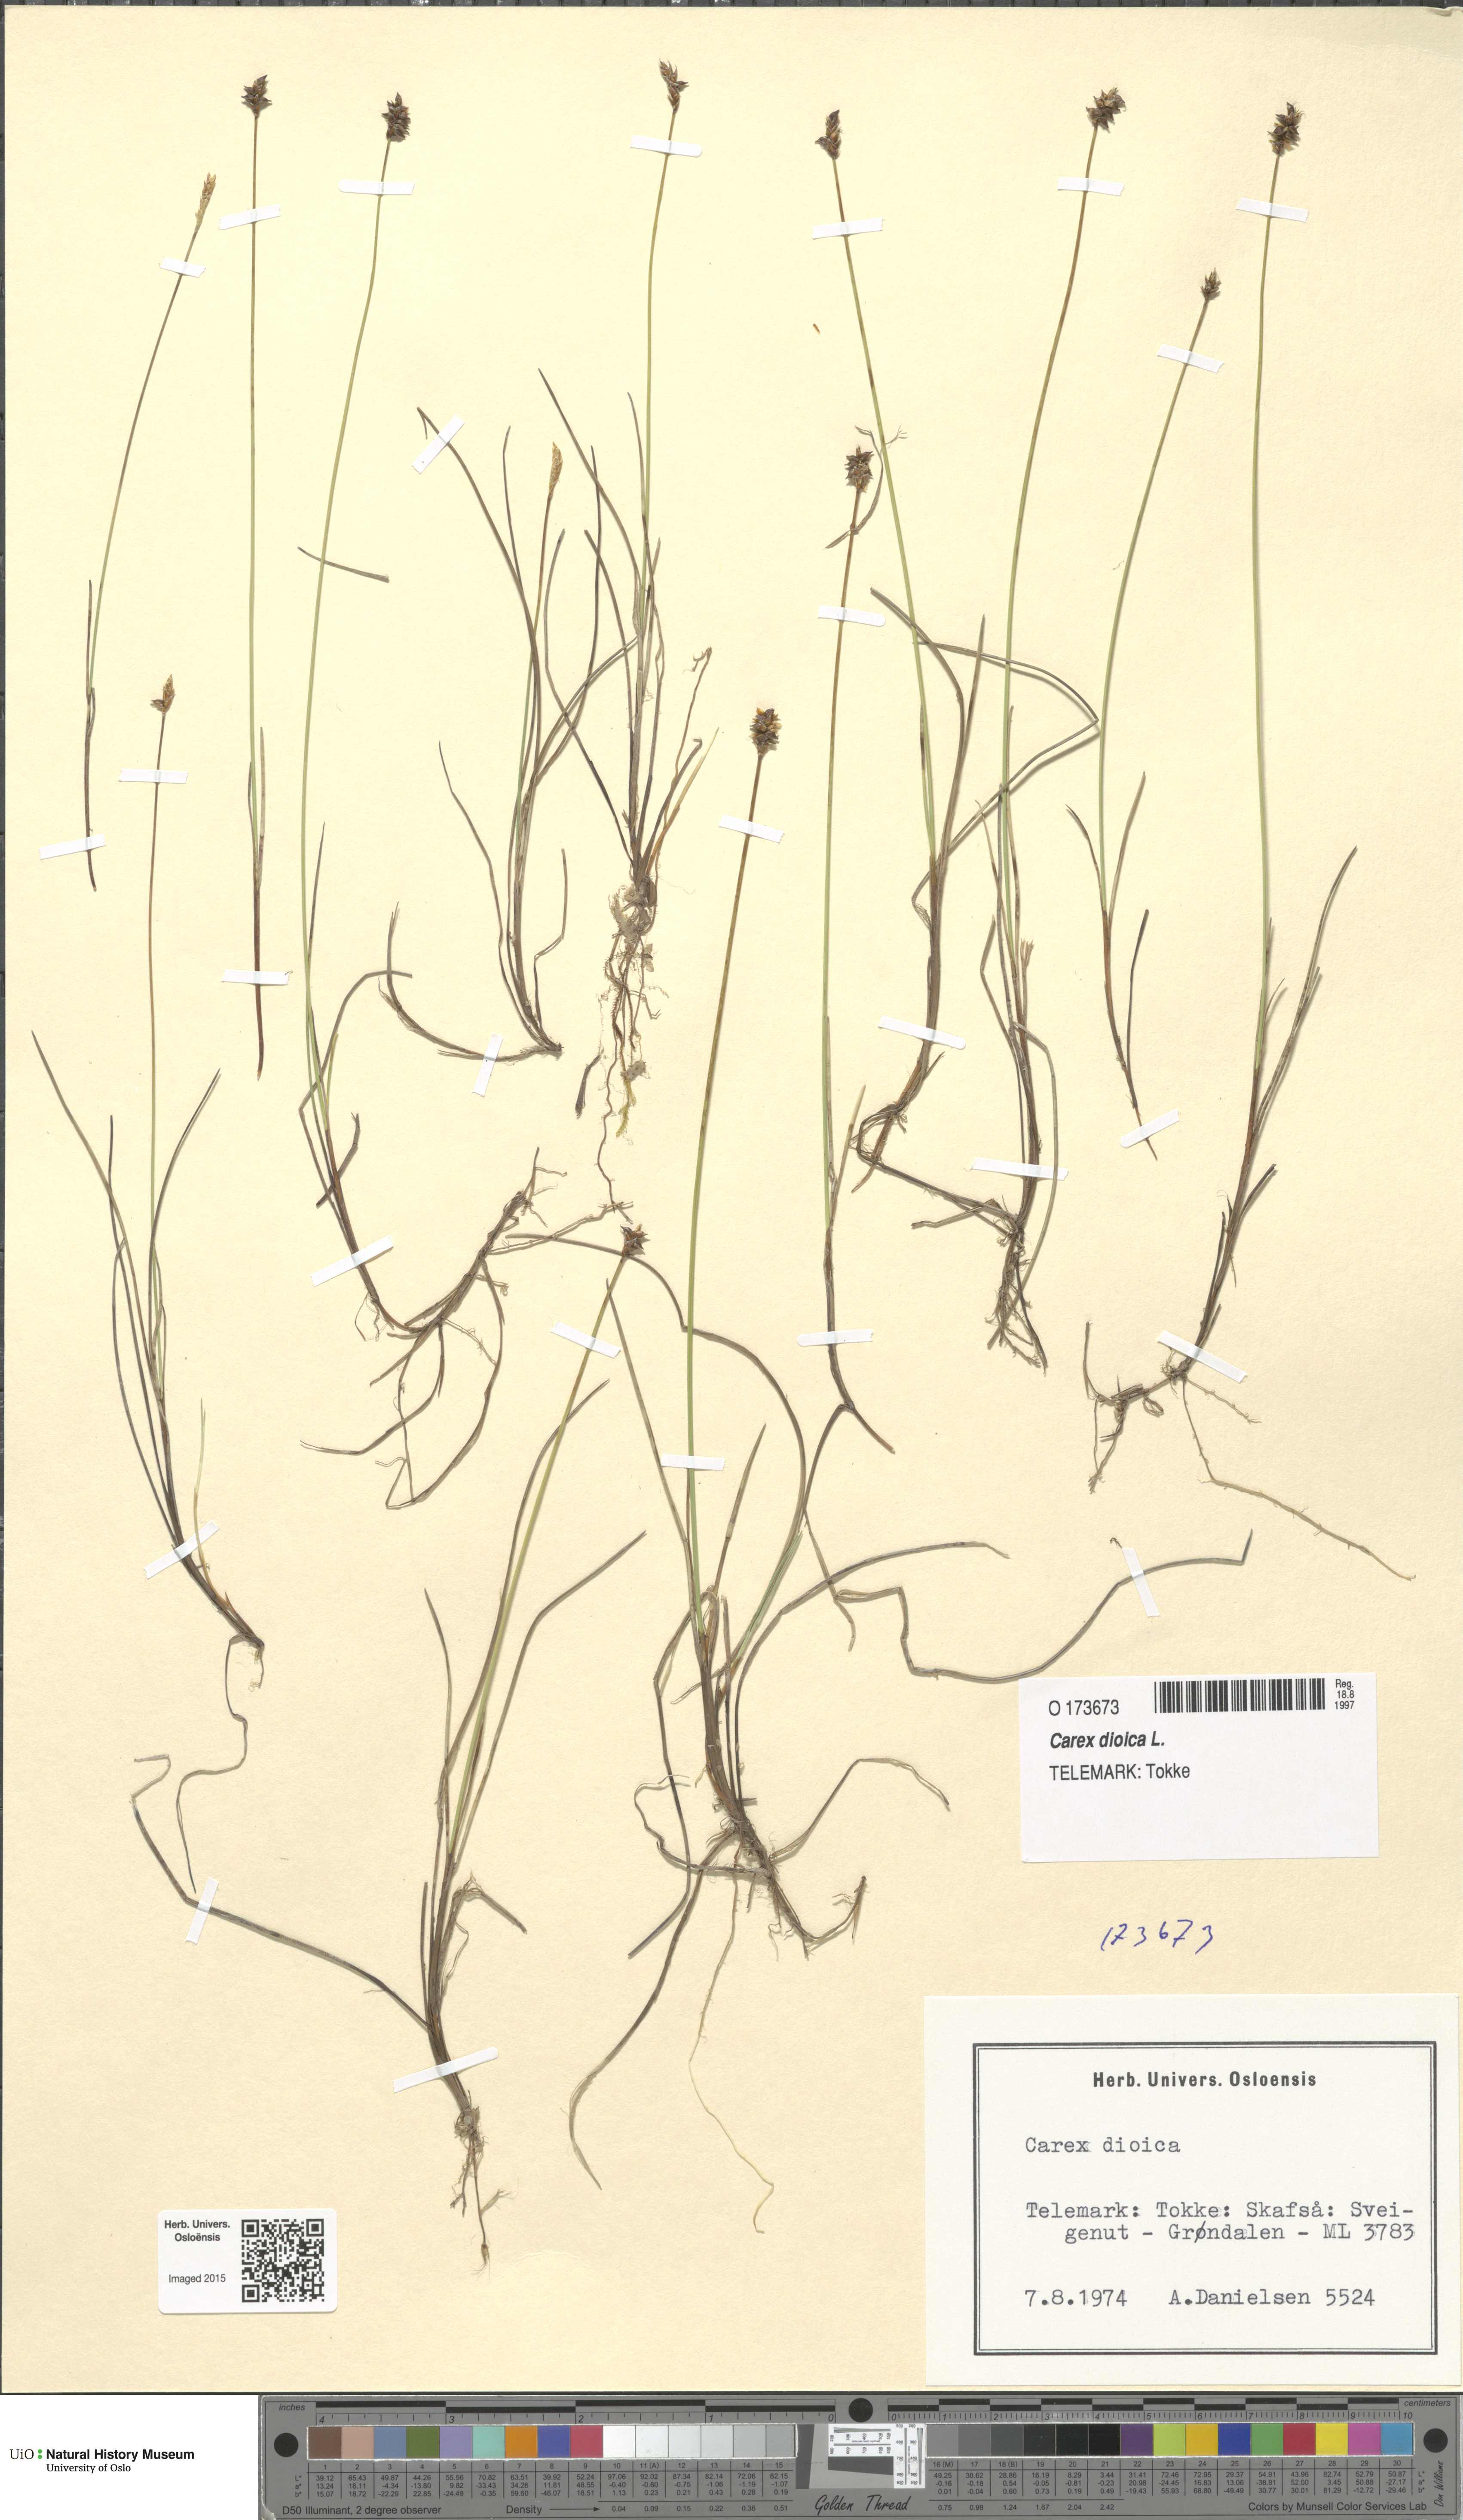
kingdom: Plantae
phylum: Tracheophyta
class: Liliopsida
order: Poales
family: Cyperaceae
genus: Carex
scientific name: Carex dioica
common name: Dioecious sedge
